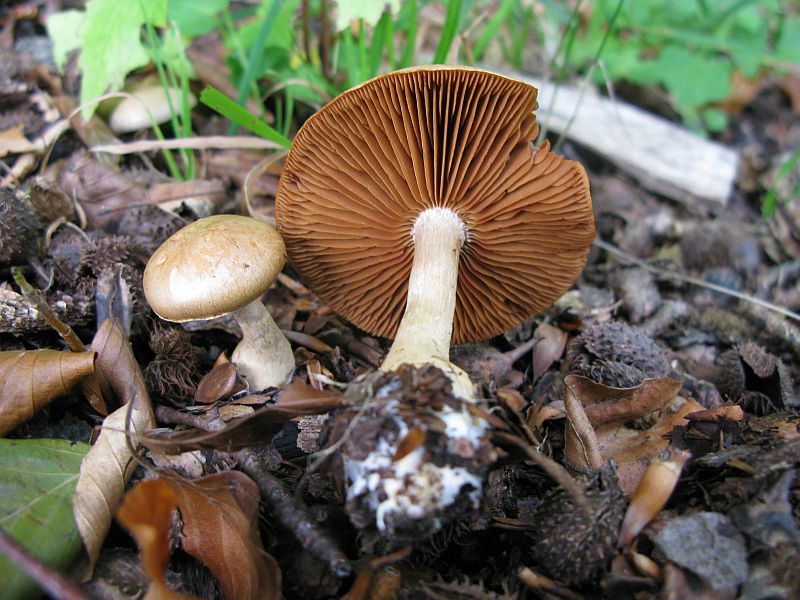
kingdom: Fungi
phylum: Basidiomycota
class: Agaricomycetes
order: Agaricales
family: Cortinariaceae
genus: Cortinarius
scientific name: Cortinarius anomalus
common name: Variable webcap
